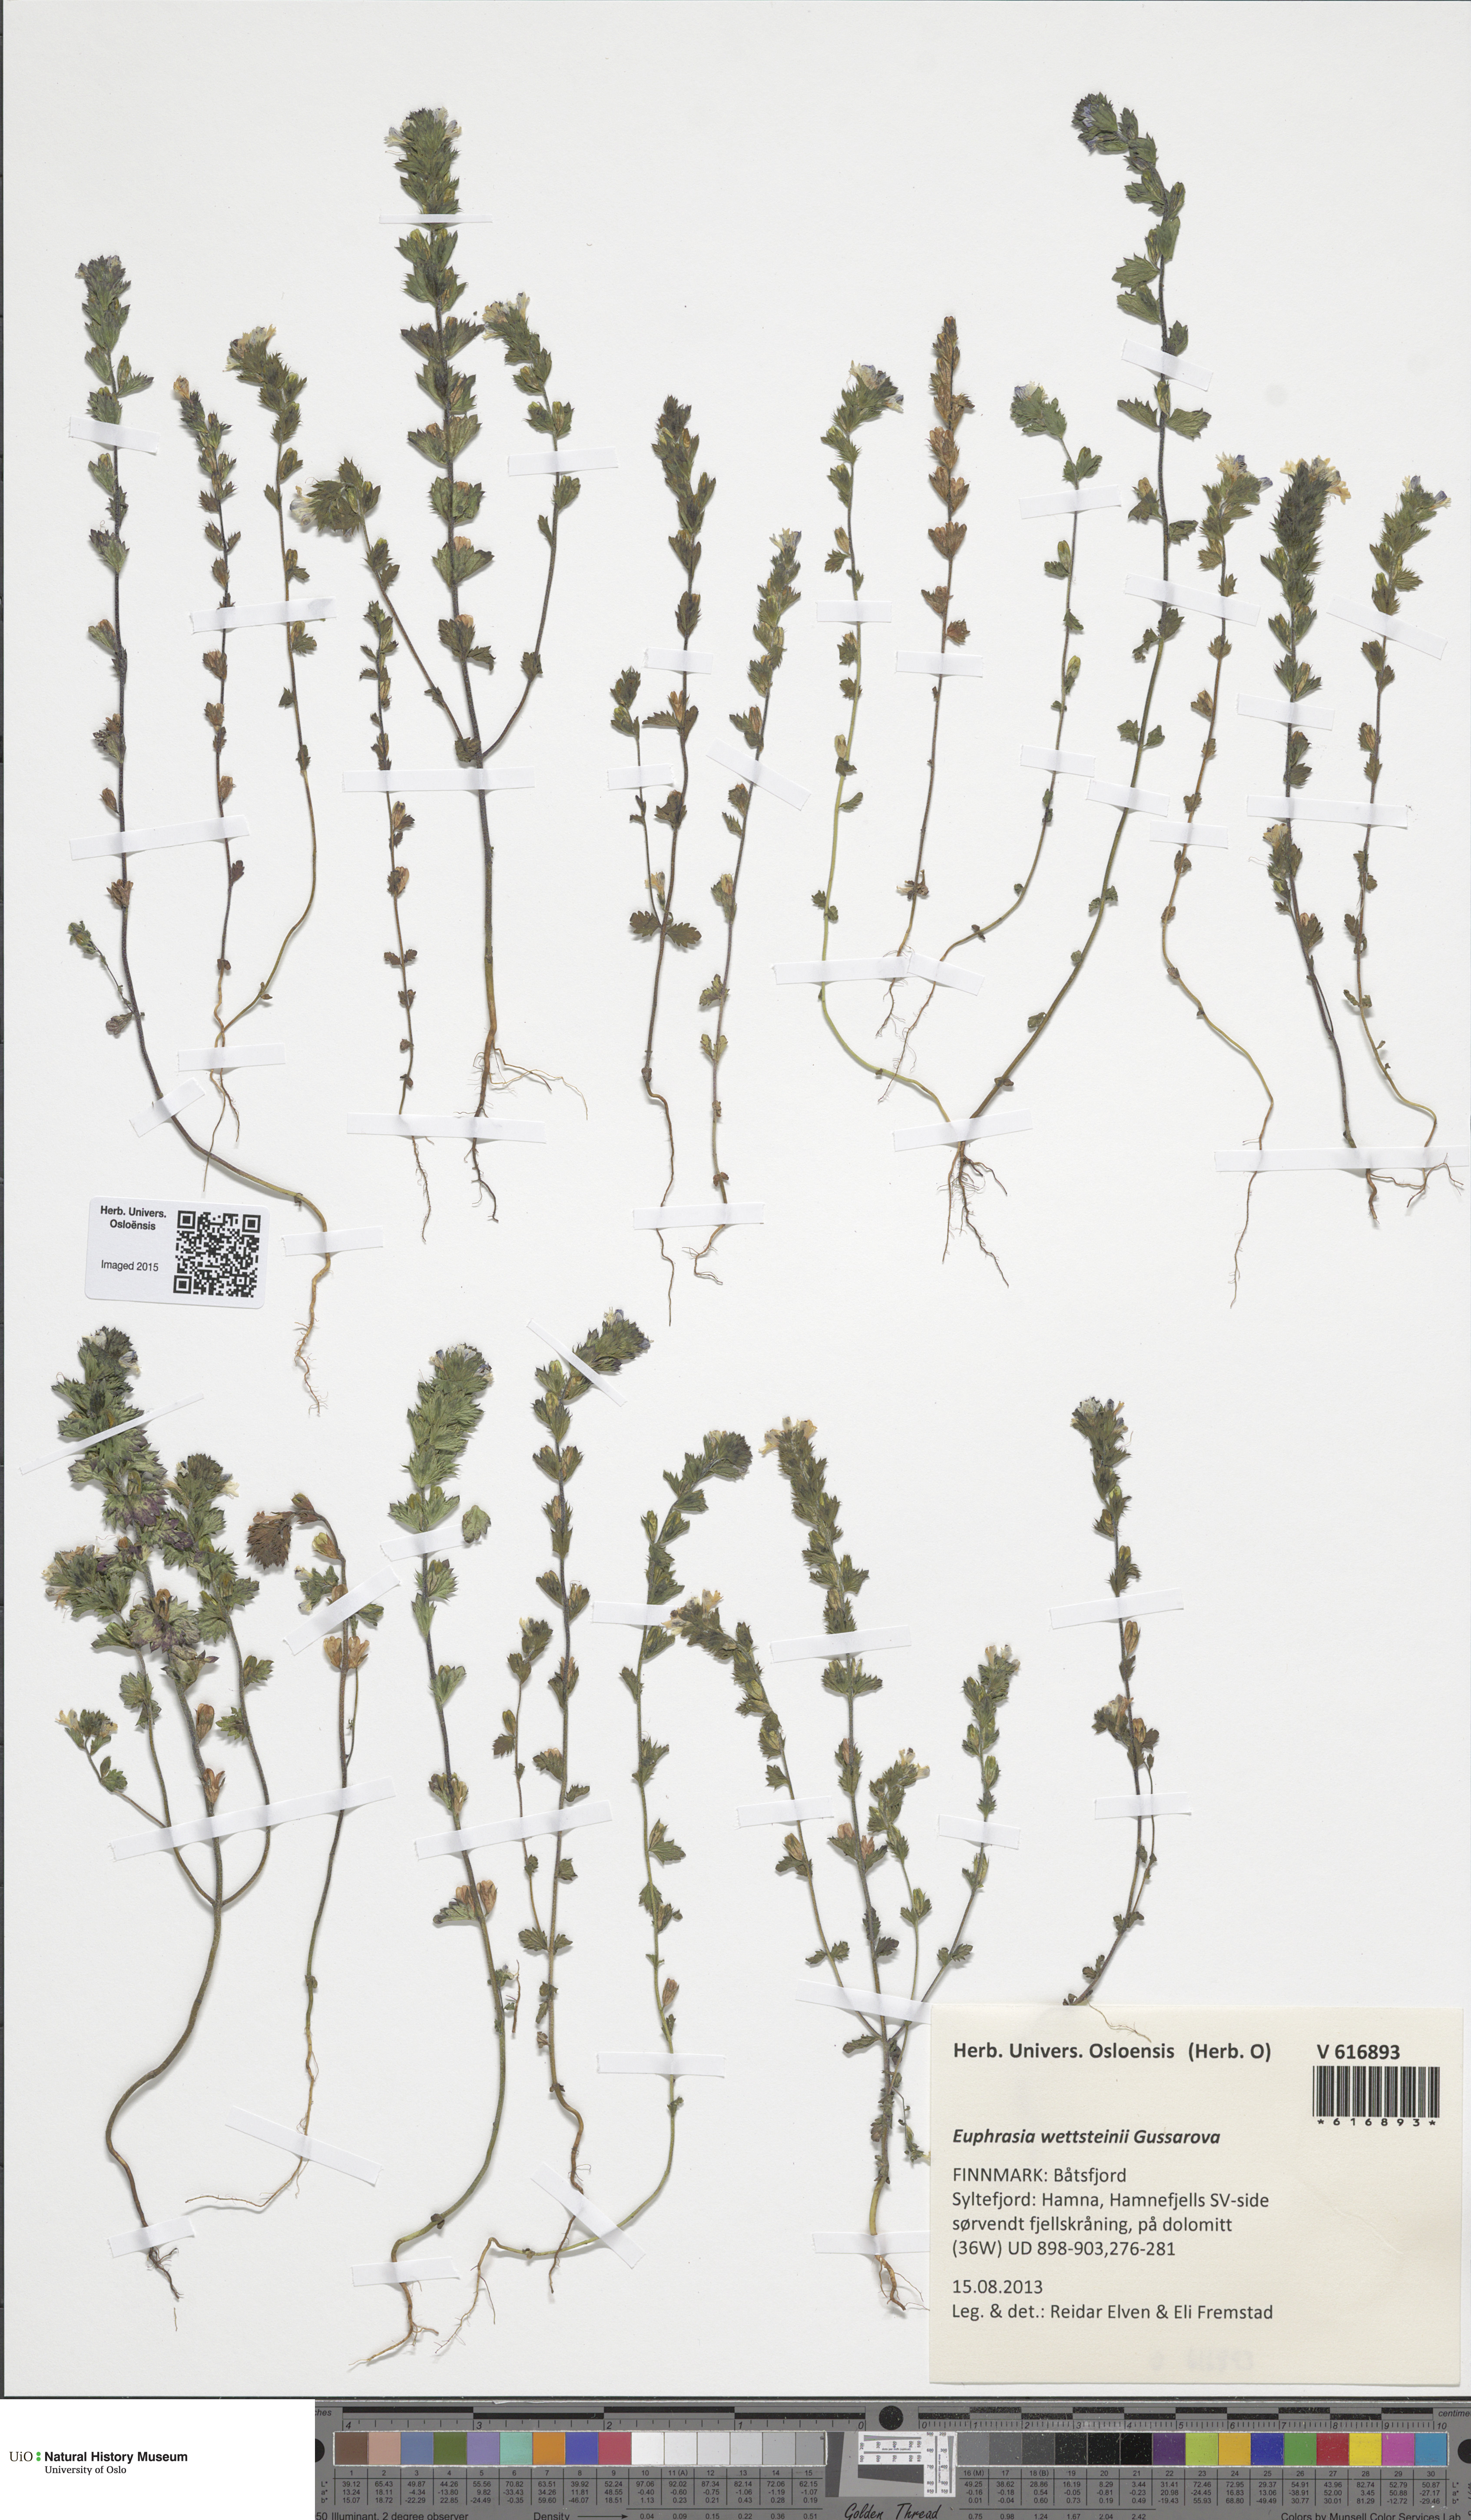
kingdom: Plantae
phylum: Tracheophyta
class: Magnoliopsida
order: Lamiales
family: Orobanchaceae
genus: Euphrasia
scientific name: Euphrasia wettsteinii
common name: Wettstein's eyebright
